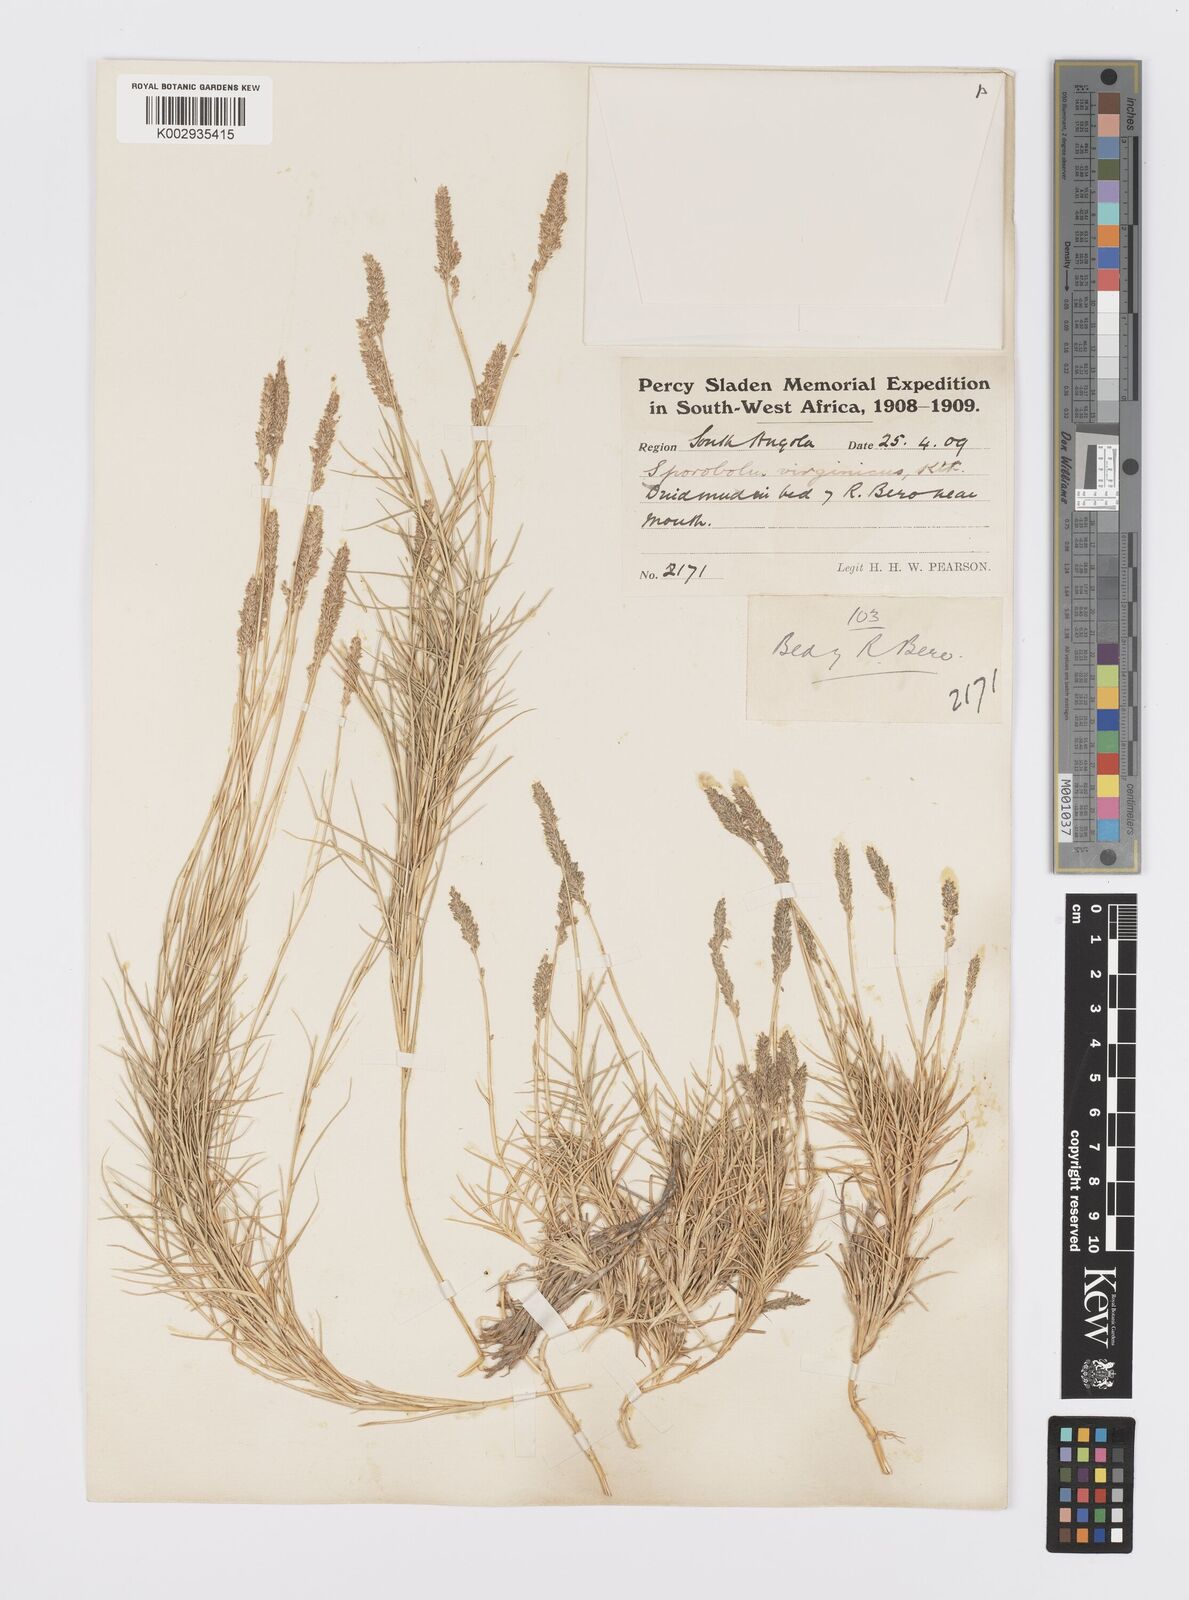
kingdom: Plantae
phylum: Tracheophyta
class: Liliopsida
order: Poales
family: Poaceae
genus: Sporobolus
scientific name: Sporobolus virginicus
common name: Beach dropseed
